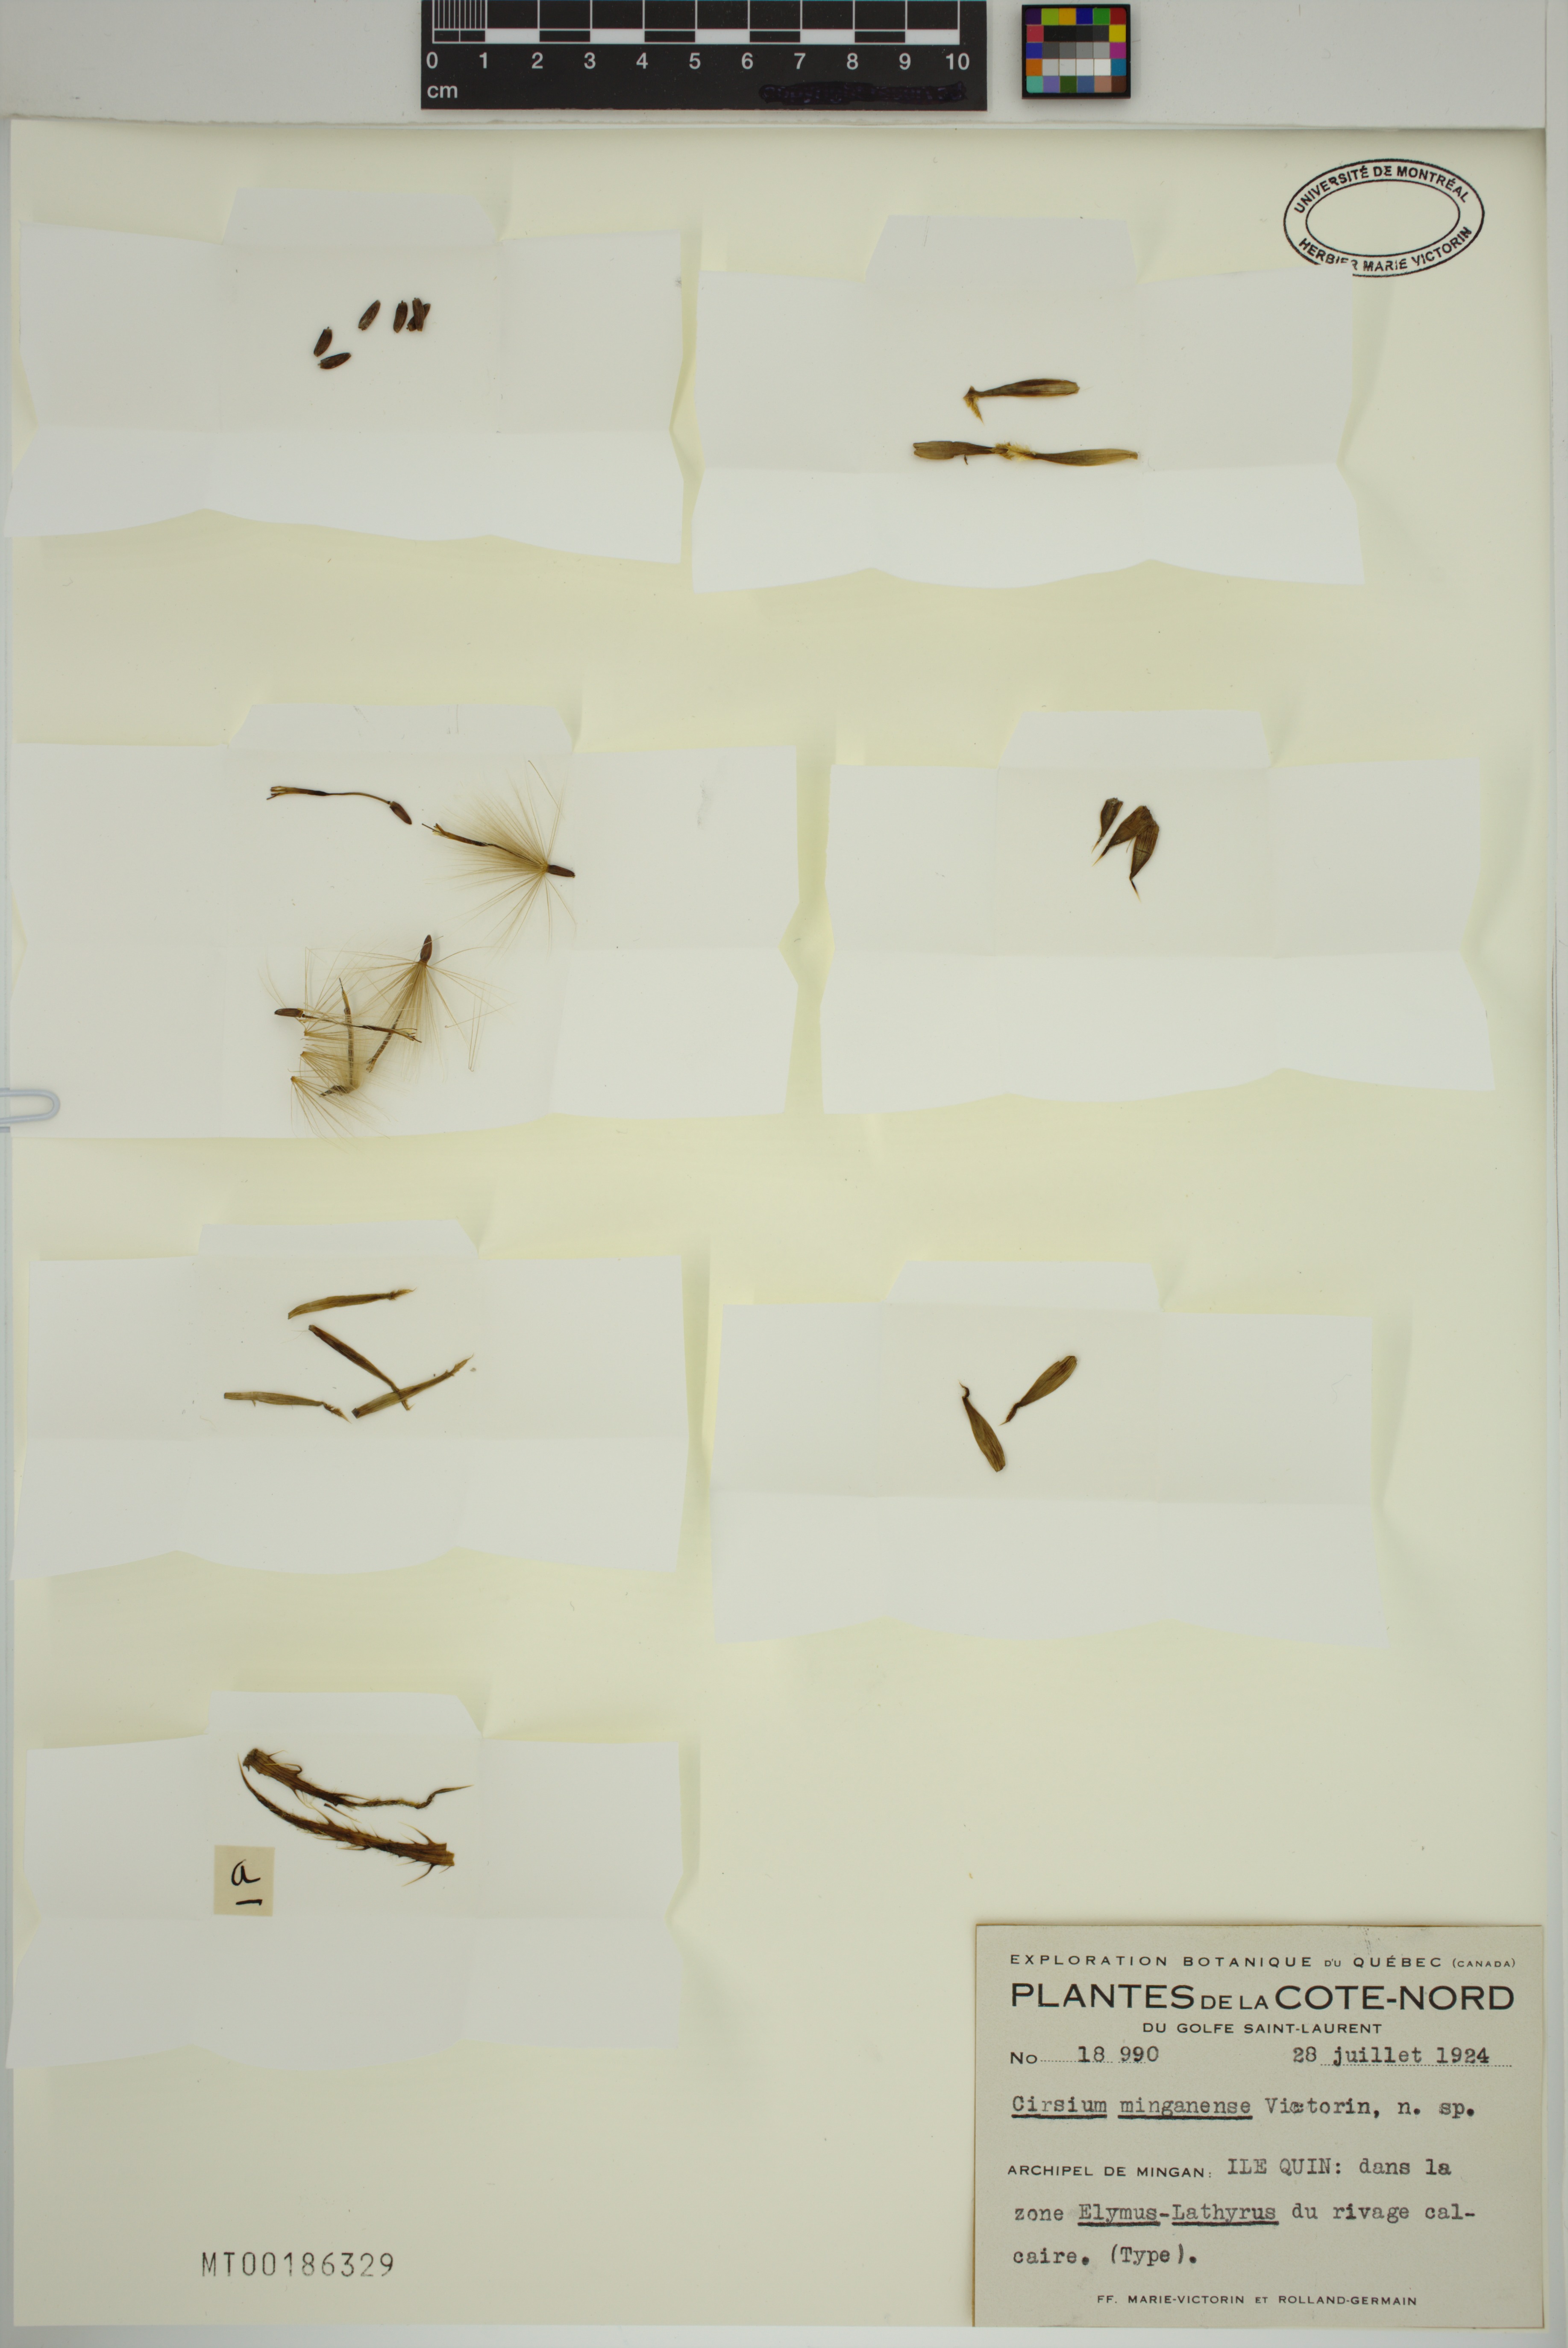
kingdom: Plantae
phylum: Tracheophyta
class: Magnoliopsida
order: Asterales
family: Asteraceae
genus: Cirsium
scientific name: Cirsium scariosum
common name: Meadow thistle
